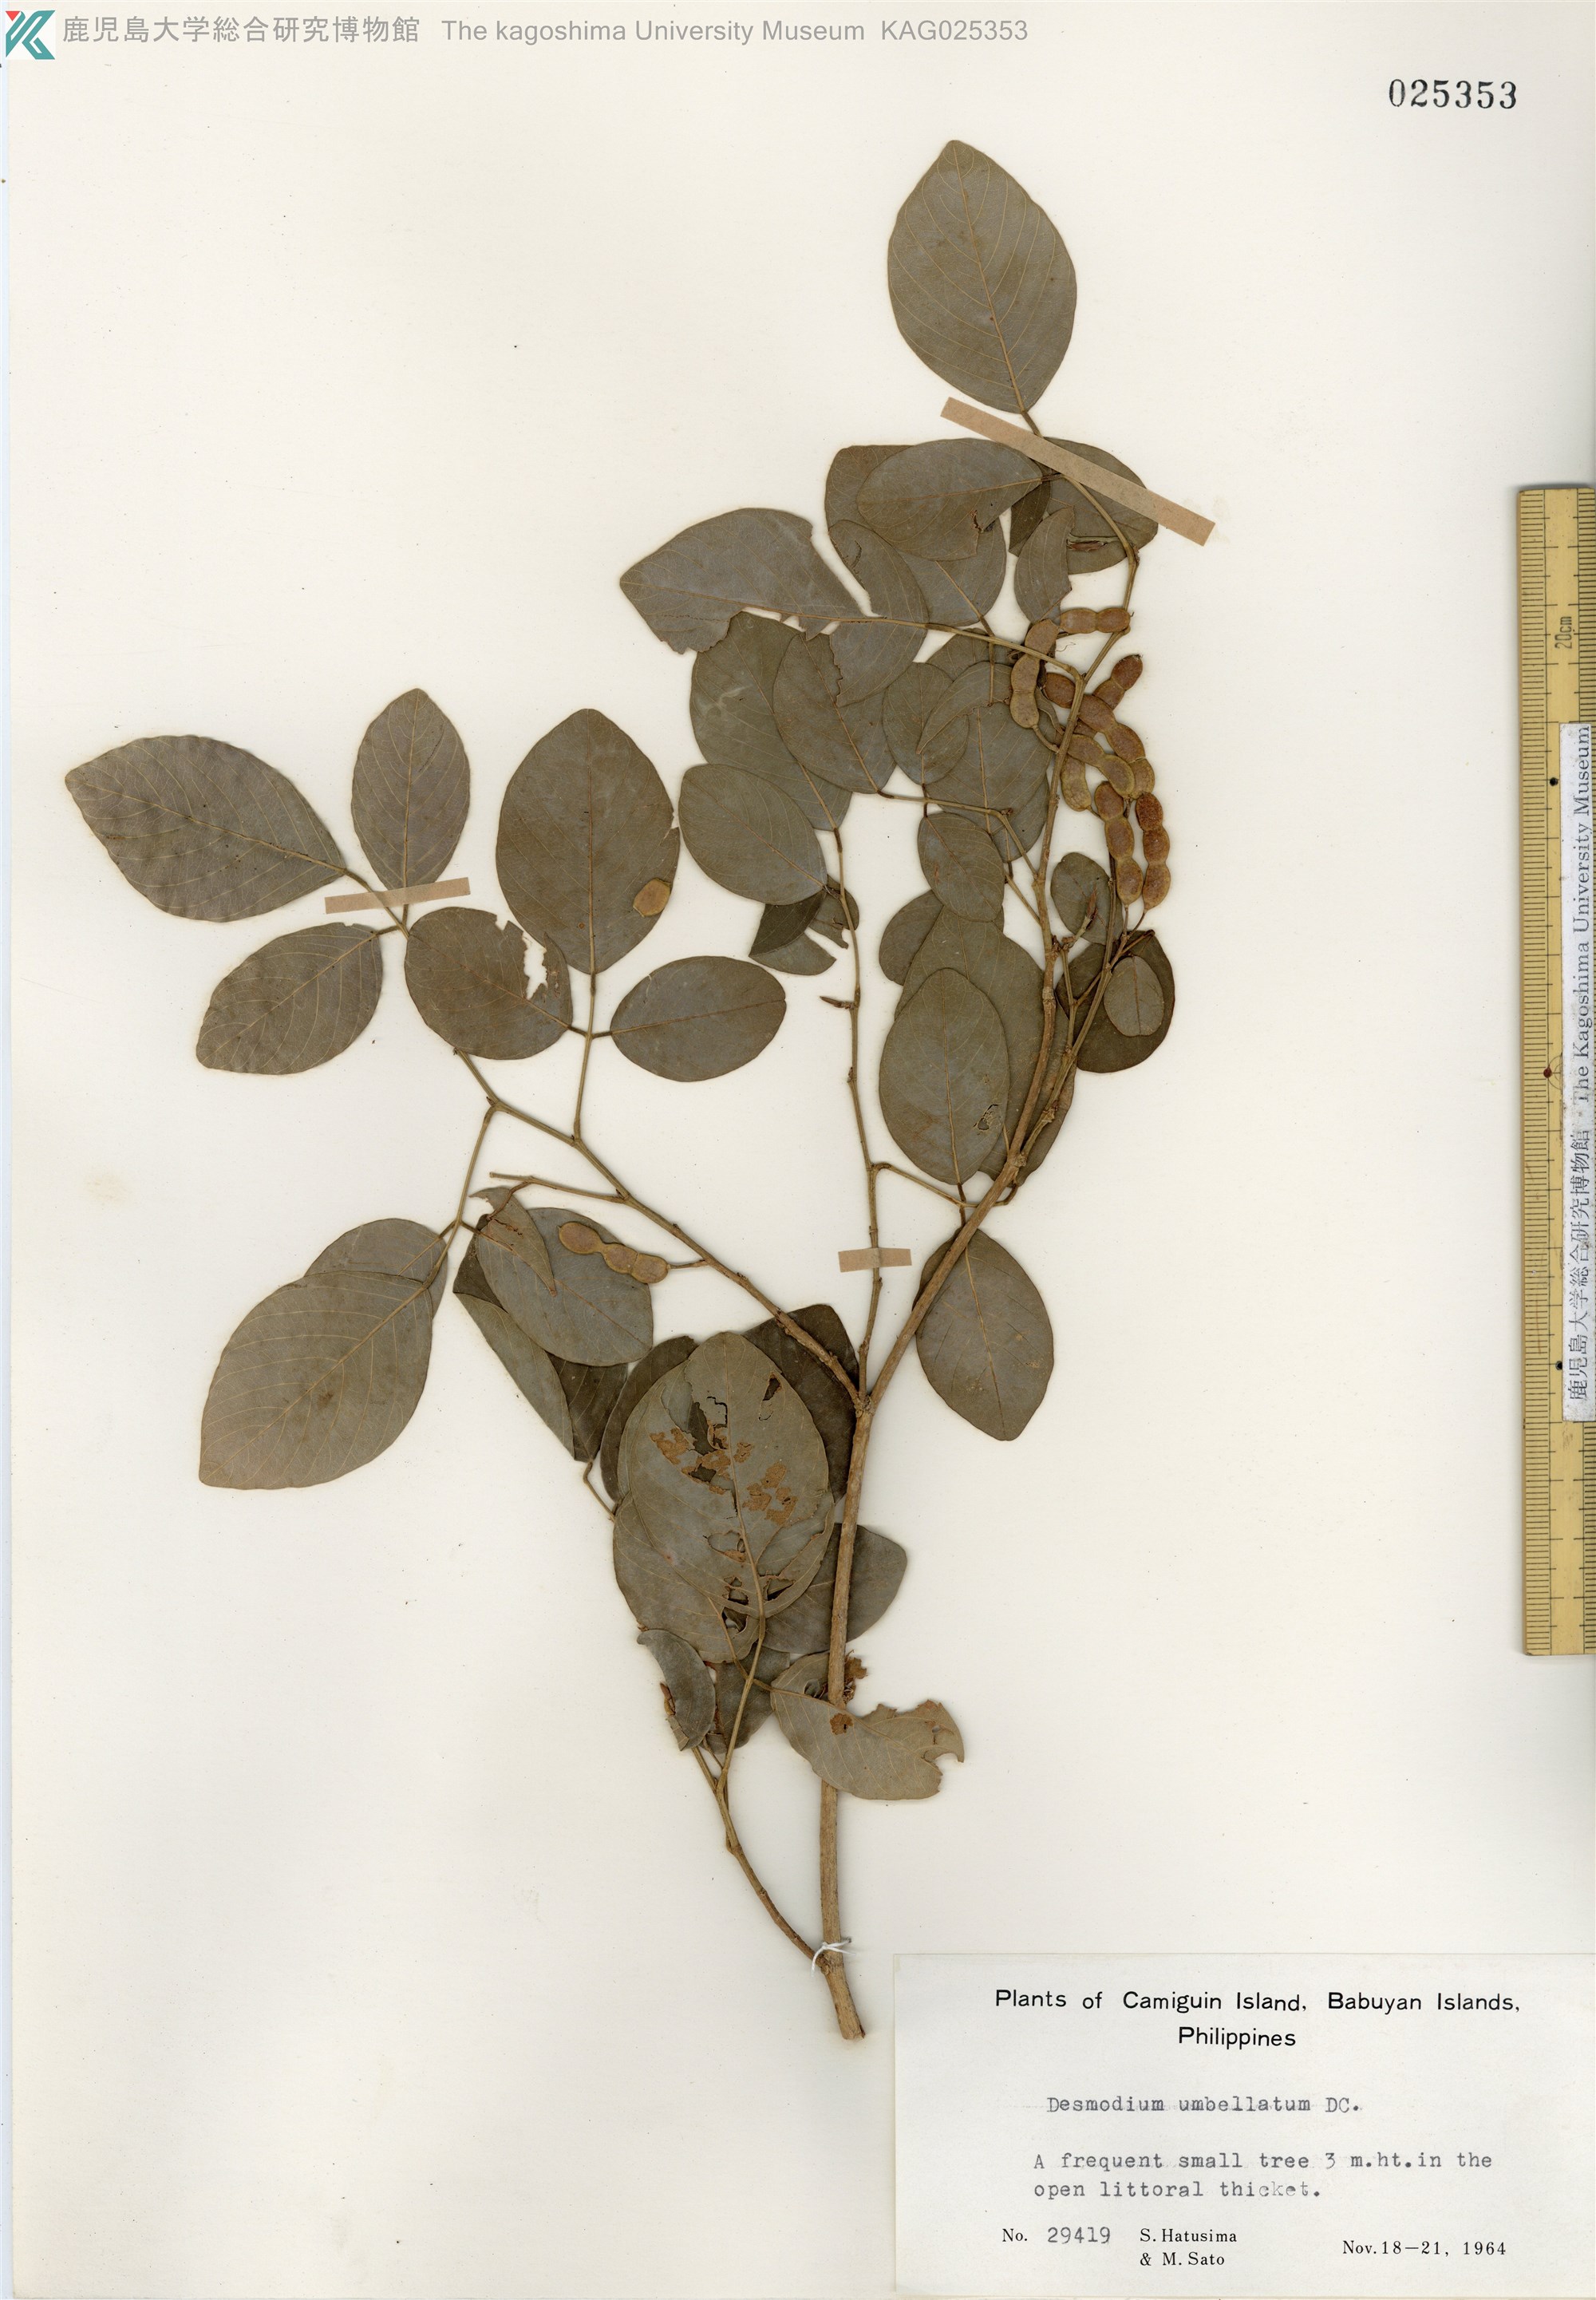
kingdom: Plantae
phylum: Tracheophyta
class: Magnoliopsida
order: Fabales
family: Fabaceae
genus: Desmodium
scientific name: Desmodium umbellatum
